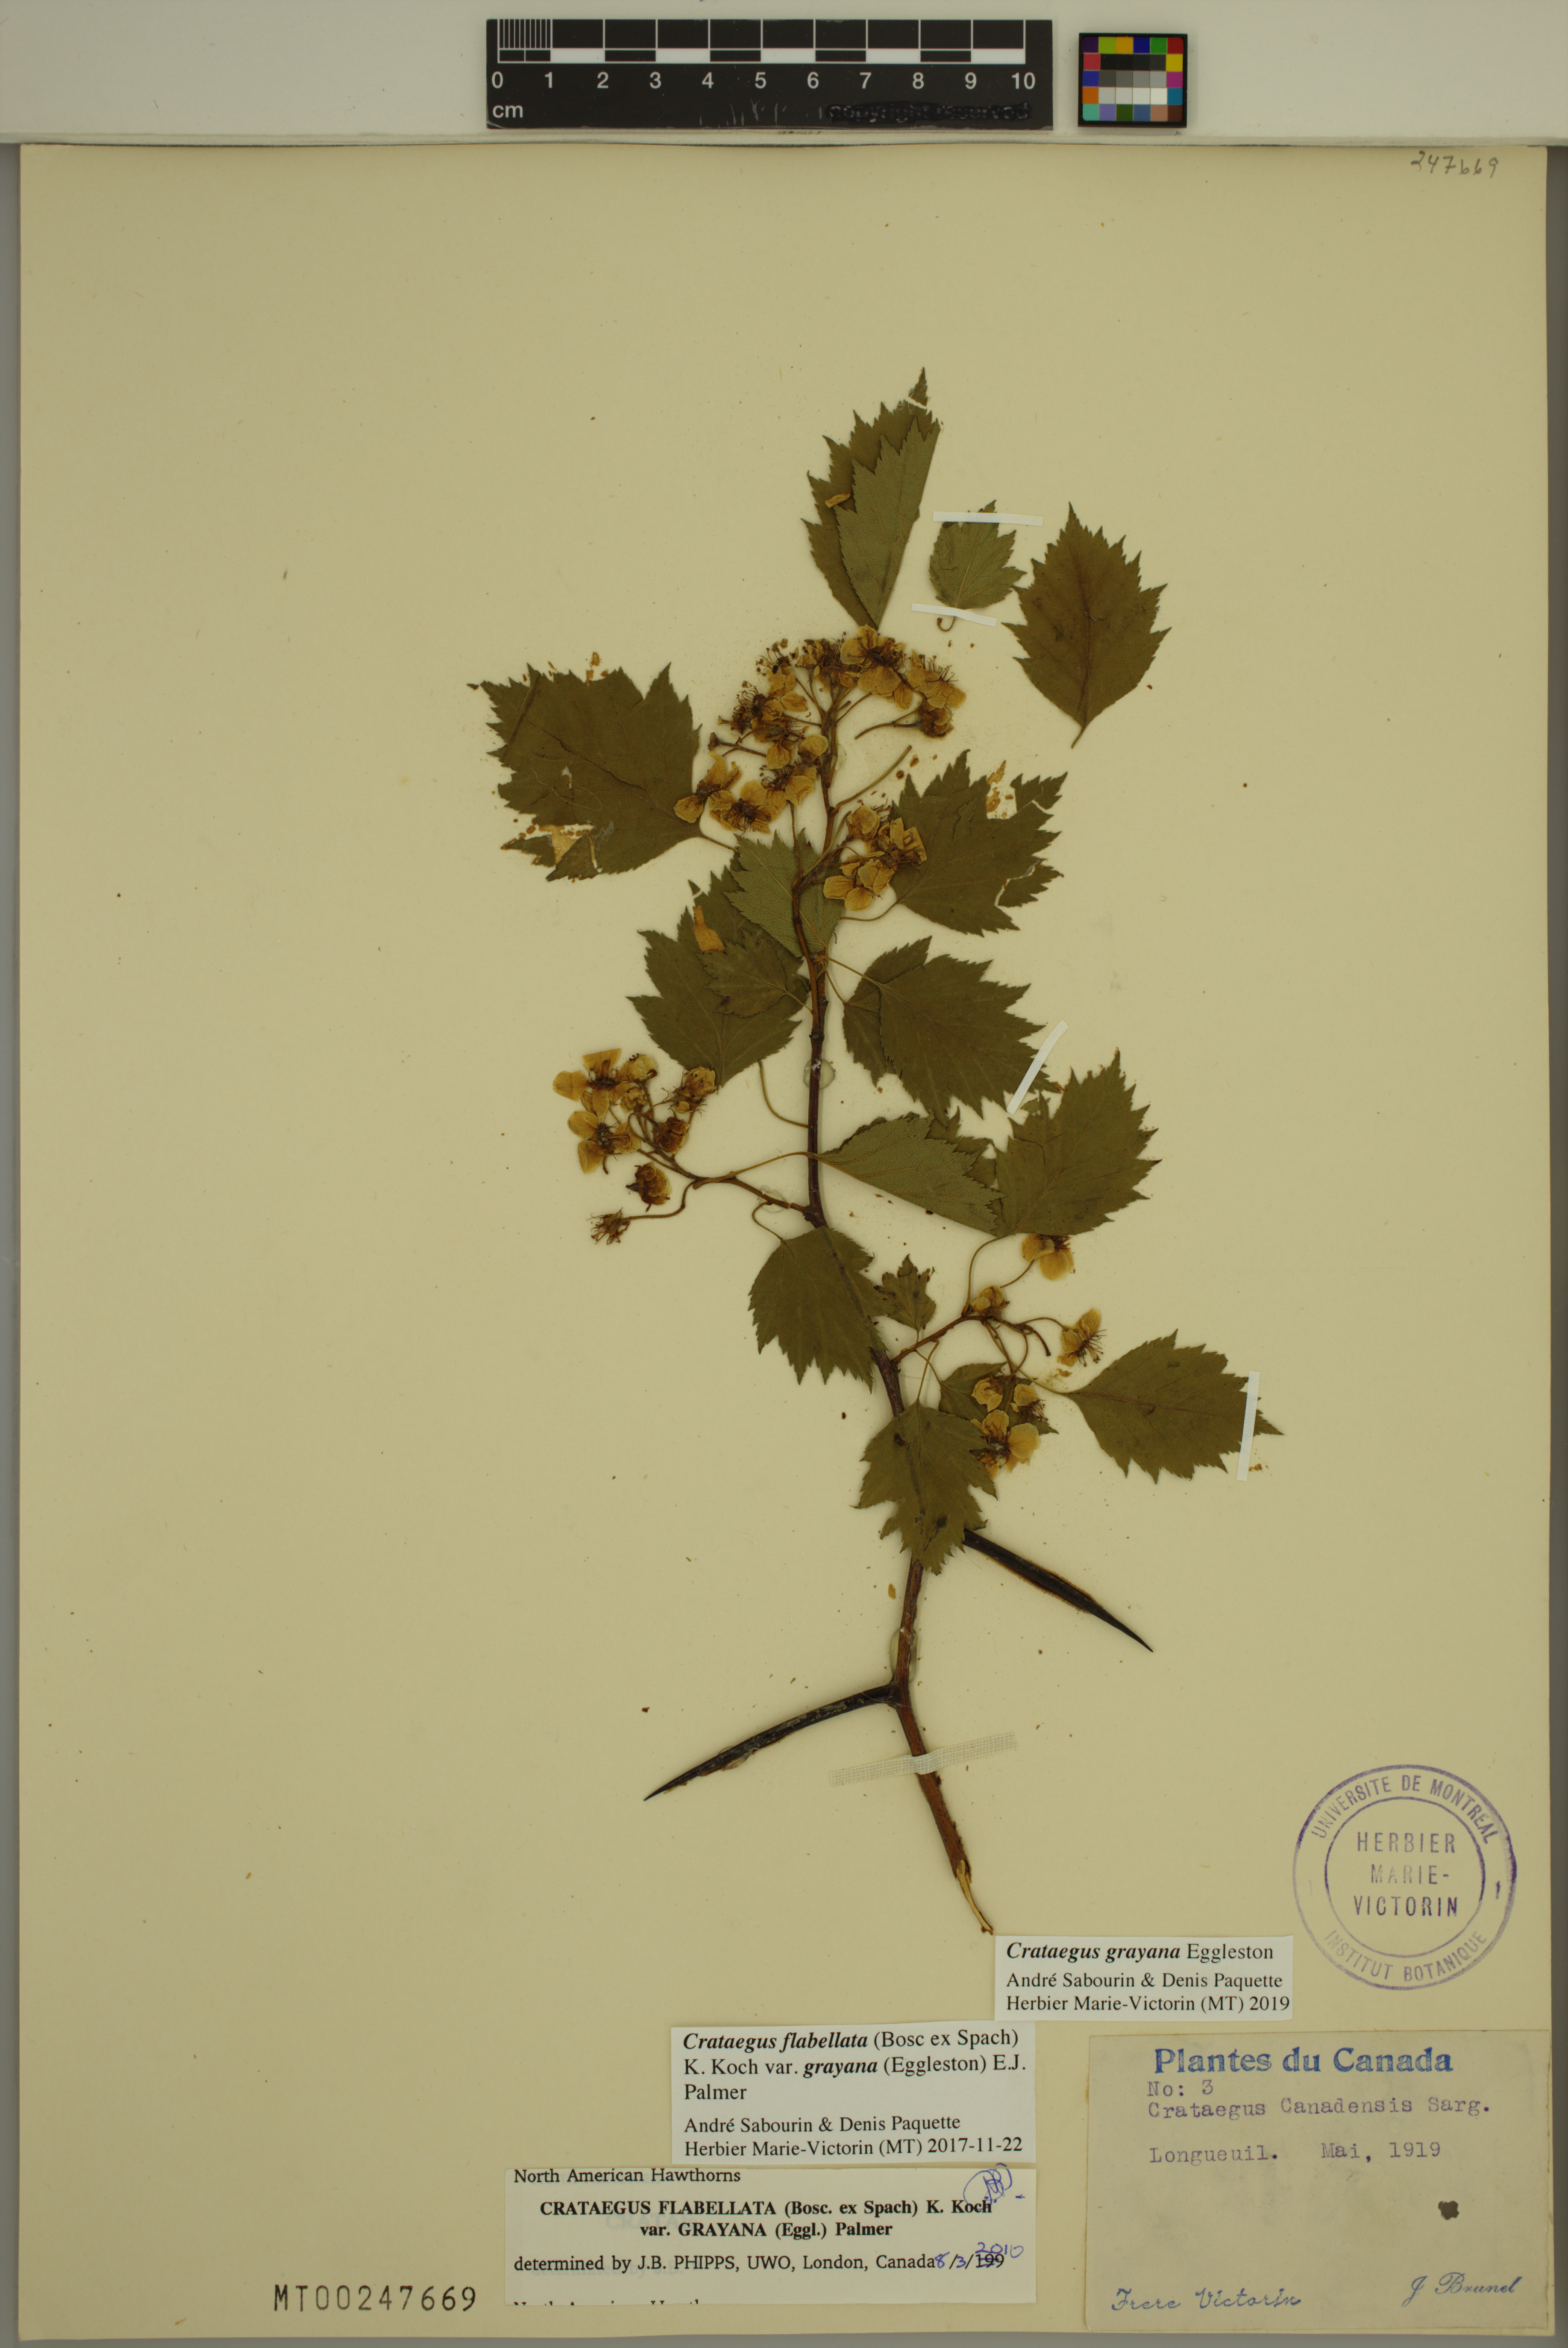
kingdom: Plantae
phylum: Tracheophyta
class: Magnoliopsida
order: Rosales
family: Rosaceae
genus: Crataegus
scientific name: Crataegus schuettei
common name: Schuette's hawthorn
